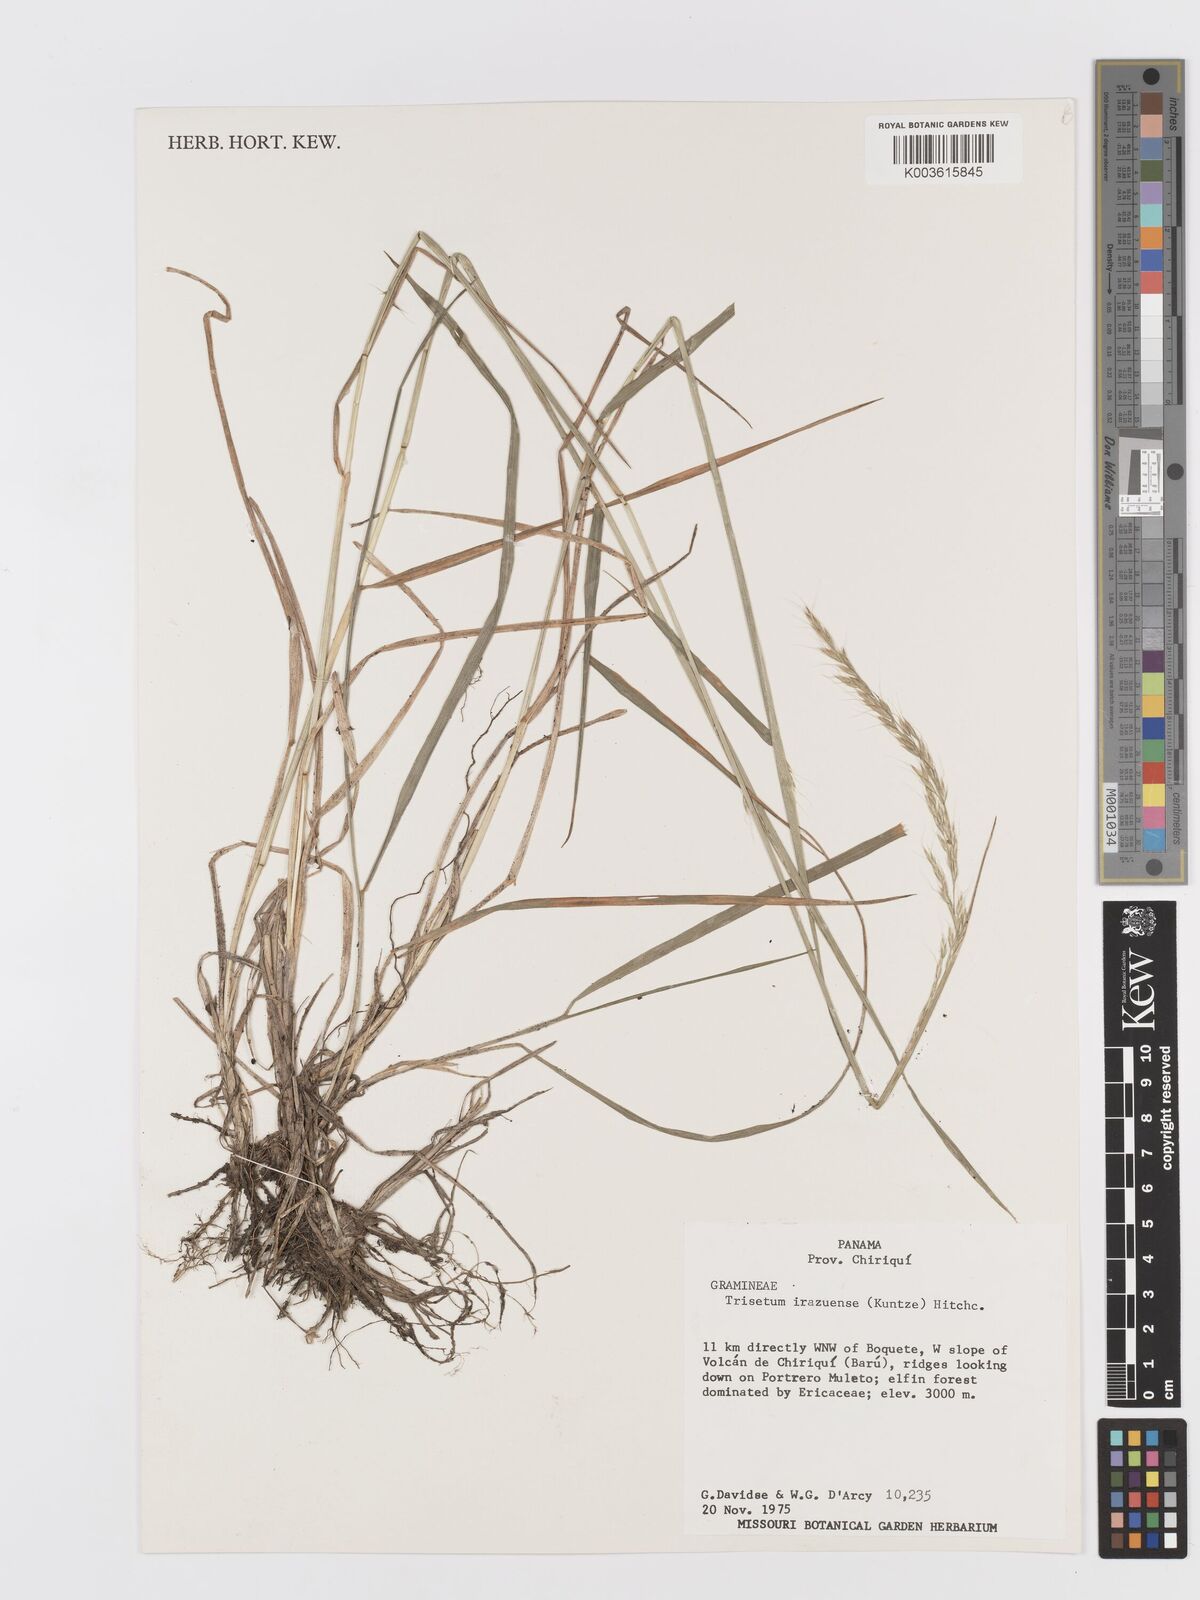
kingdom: Plantae
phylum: Tracheophyta
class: Liliopsida
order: Poales
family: Poaceae
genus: Peyritschia
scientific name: Peyritschia irazuensis
